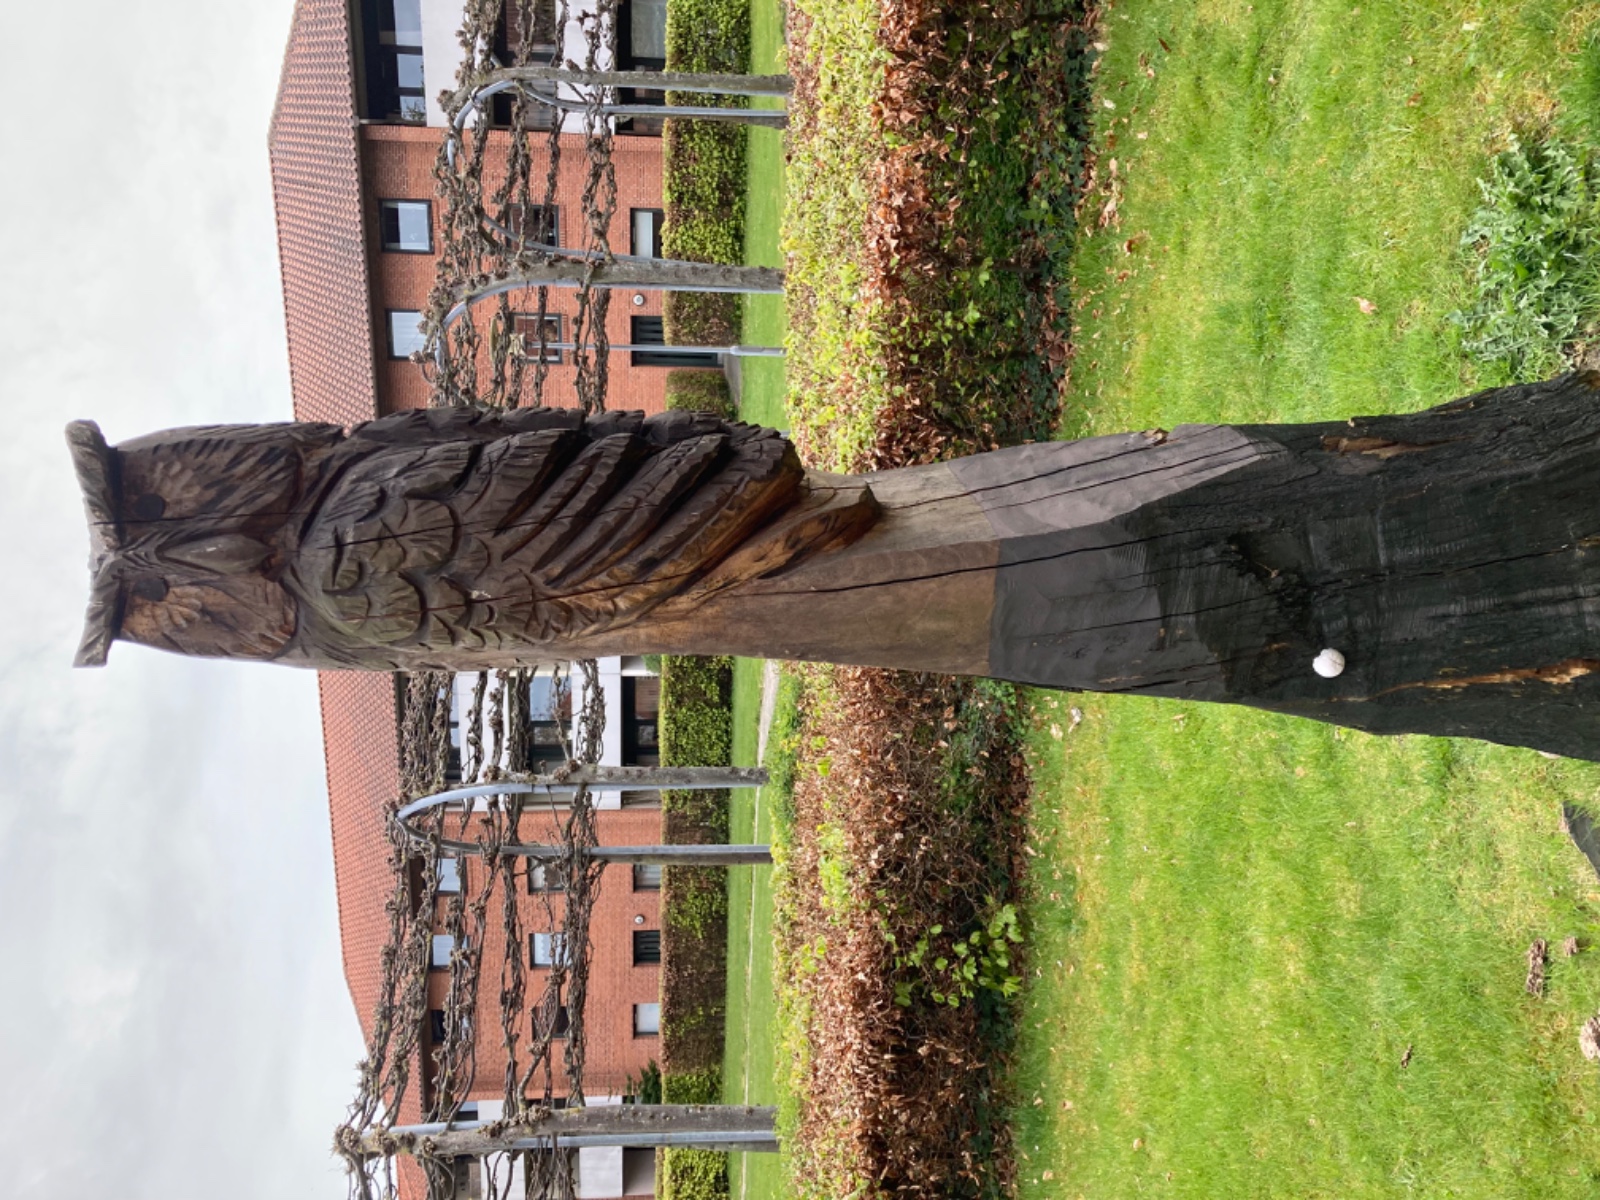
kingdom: Protozoa
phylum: Mycetozoa
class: Myxomycetes
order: Cribrariales
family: Tubiferaceae
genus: Reticularia
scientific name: Reticularia lycoperdon
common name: skinnende støvpude
